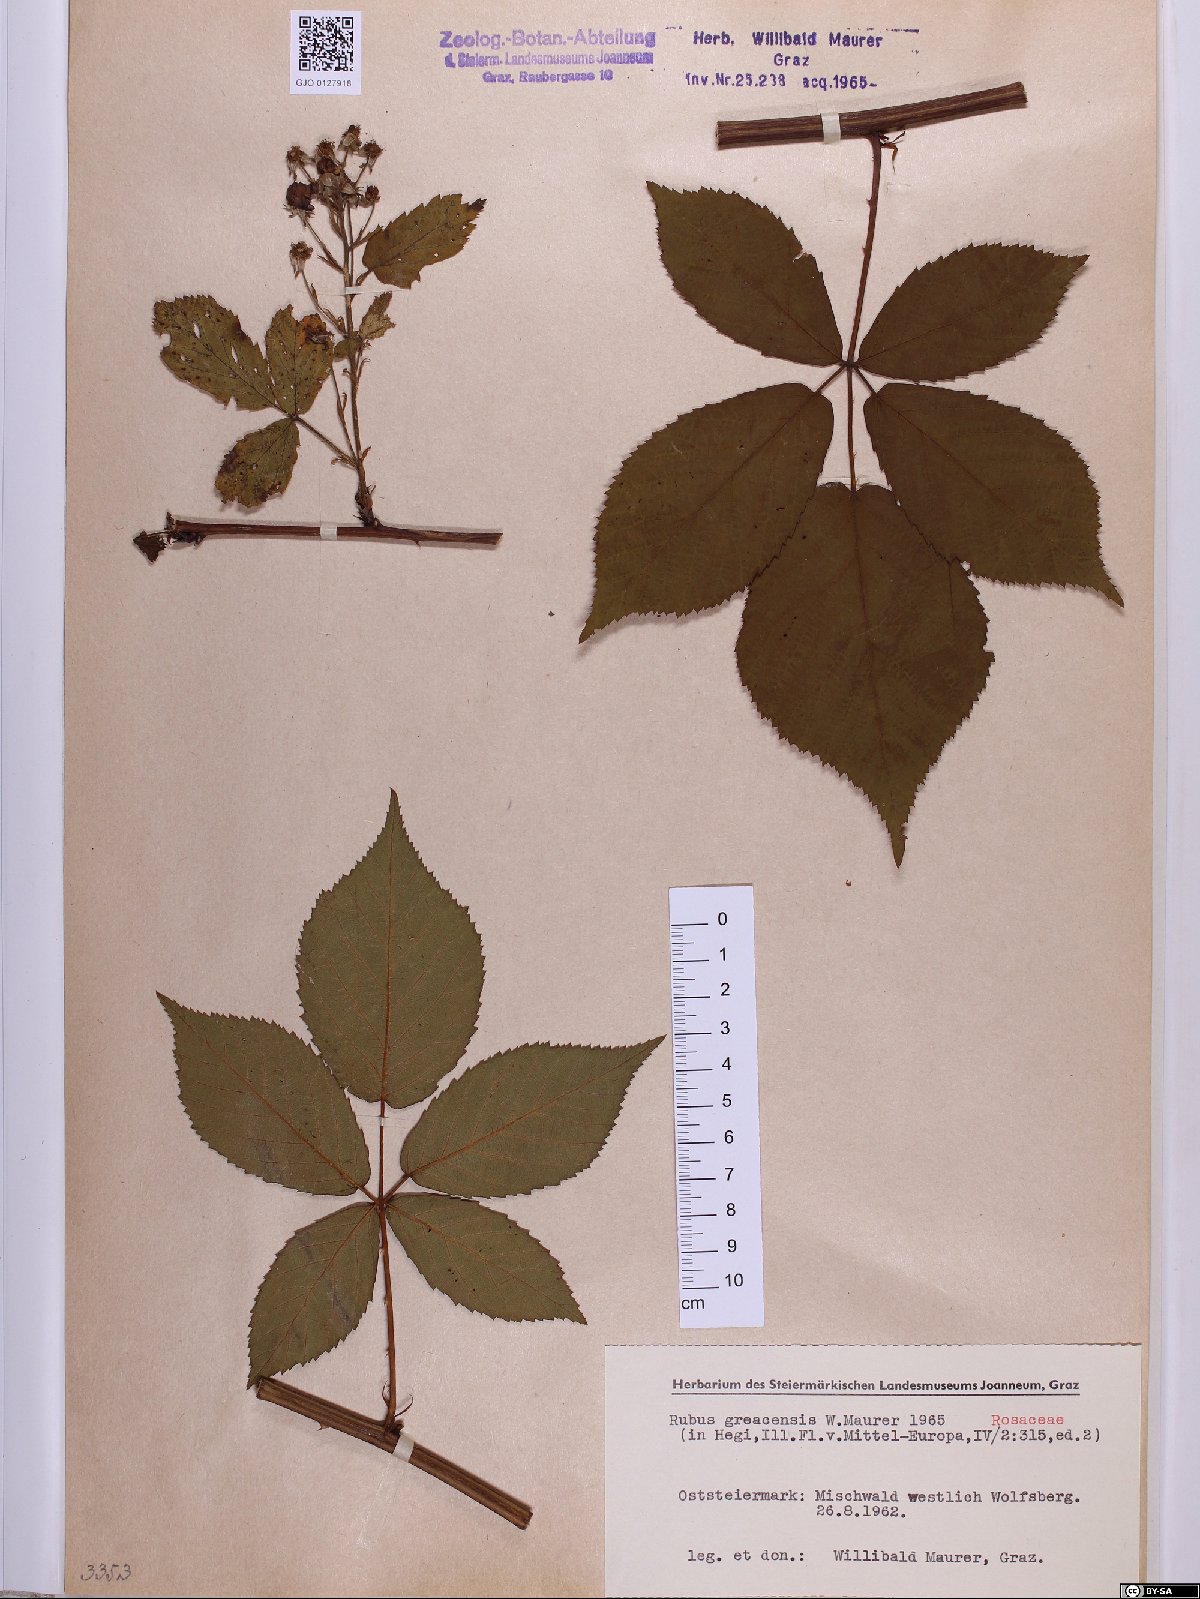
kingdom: Plantae
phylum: Tracheophyta
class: Magnoliopsida
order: Rosales
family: Rosaceae
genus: Rubus
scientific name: Rubus graecensis
